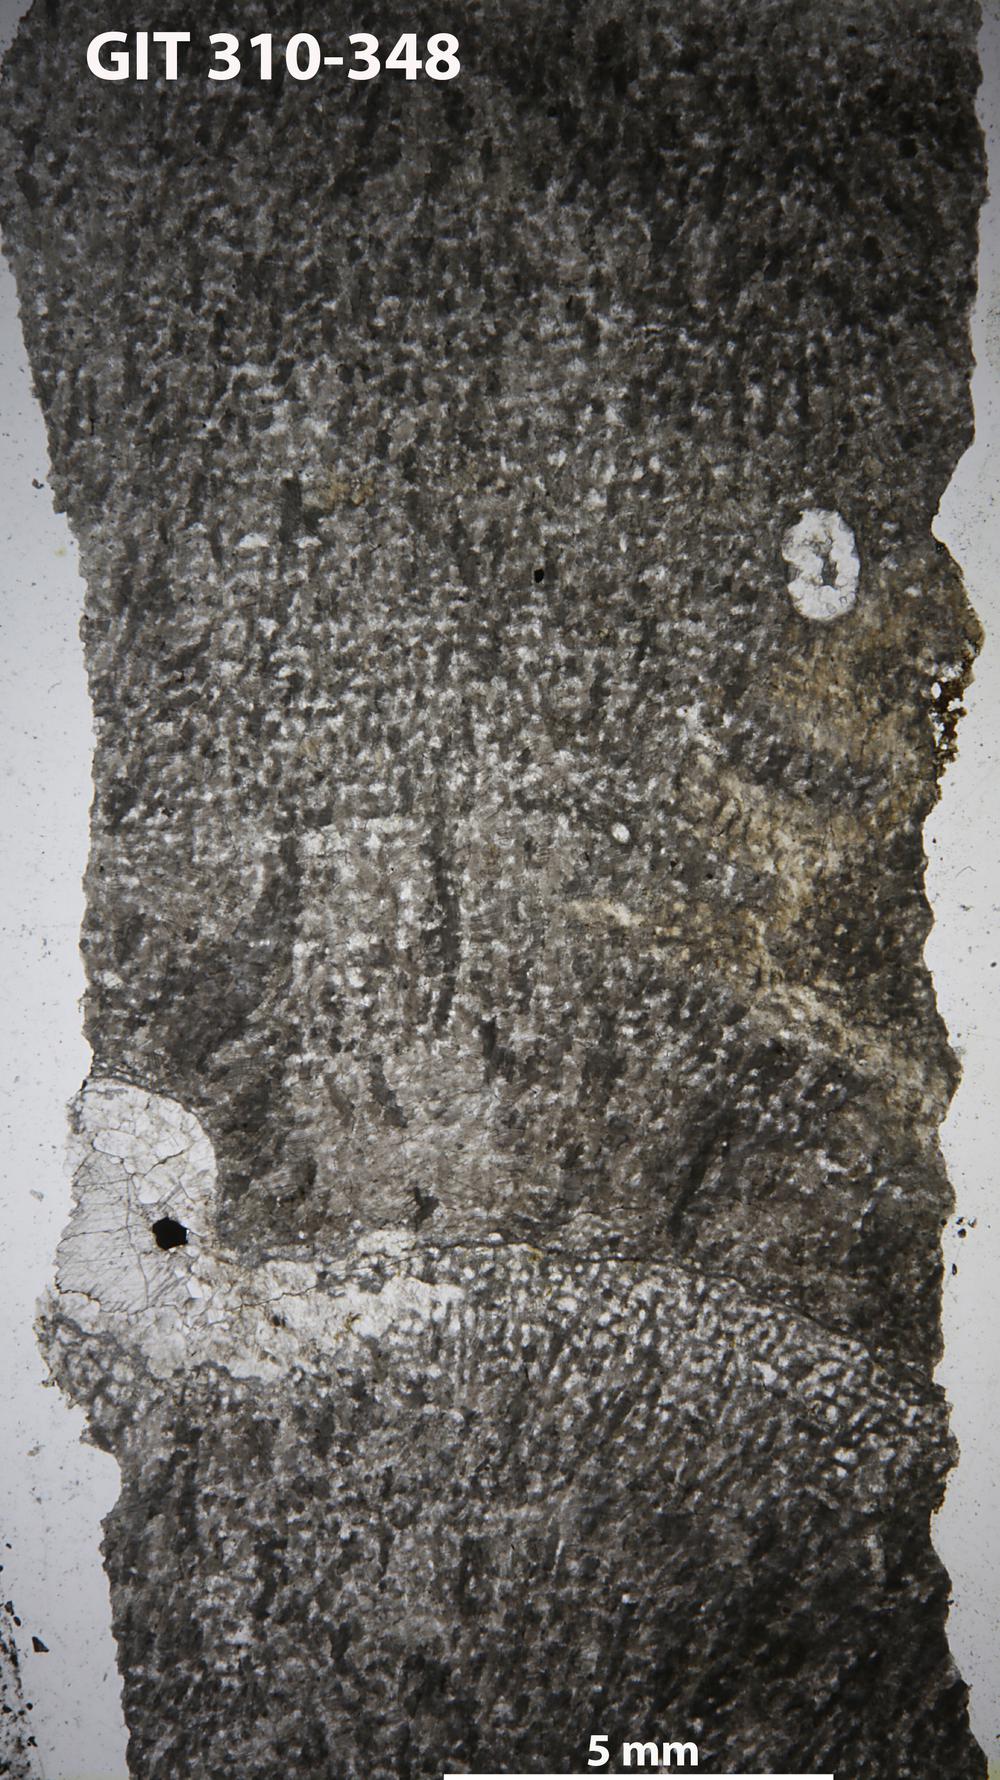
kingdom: Animalia
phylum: Porifera
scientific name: Porifera
